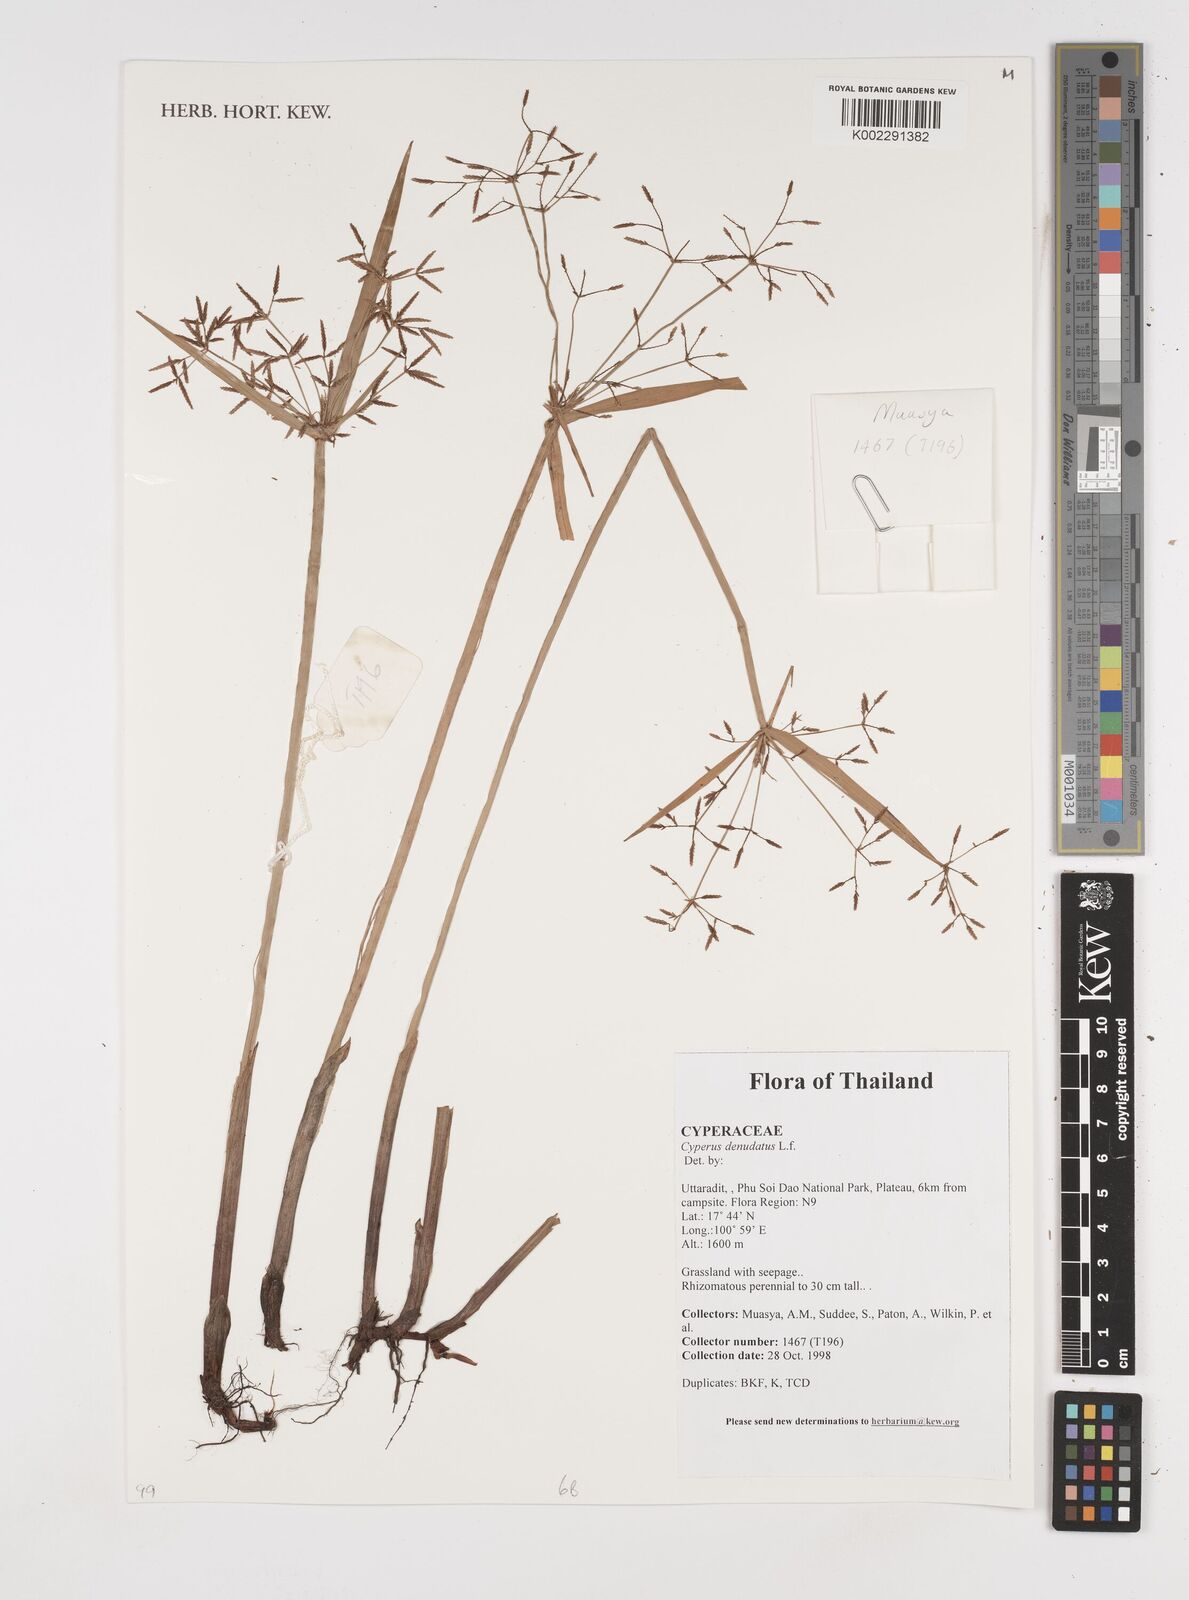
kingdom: Plantae
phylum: Tracheophyta
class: Liliopsida
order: Poales
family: Cyperaceae
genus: Cyperus
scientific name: Cyperus denudatus
